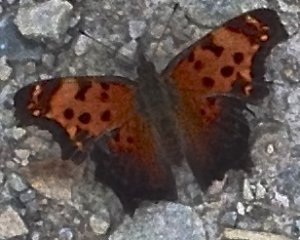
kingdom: Animalia
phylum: Arthropoda
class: Insecta
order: Lepidoptera
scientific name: Lepidoptera
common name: Butterflies
